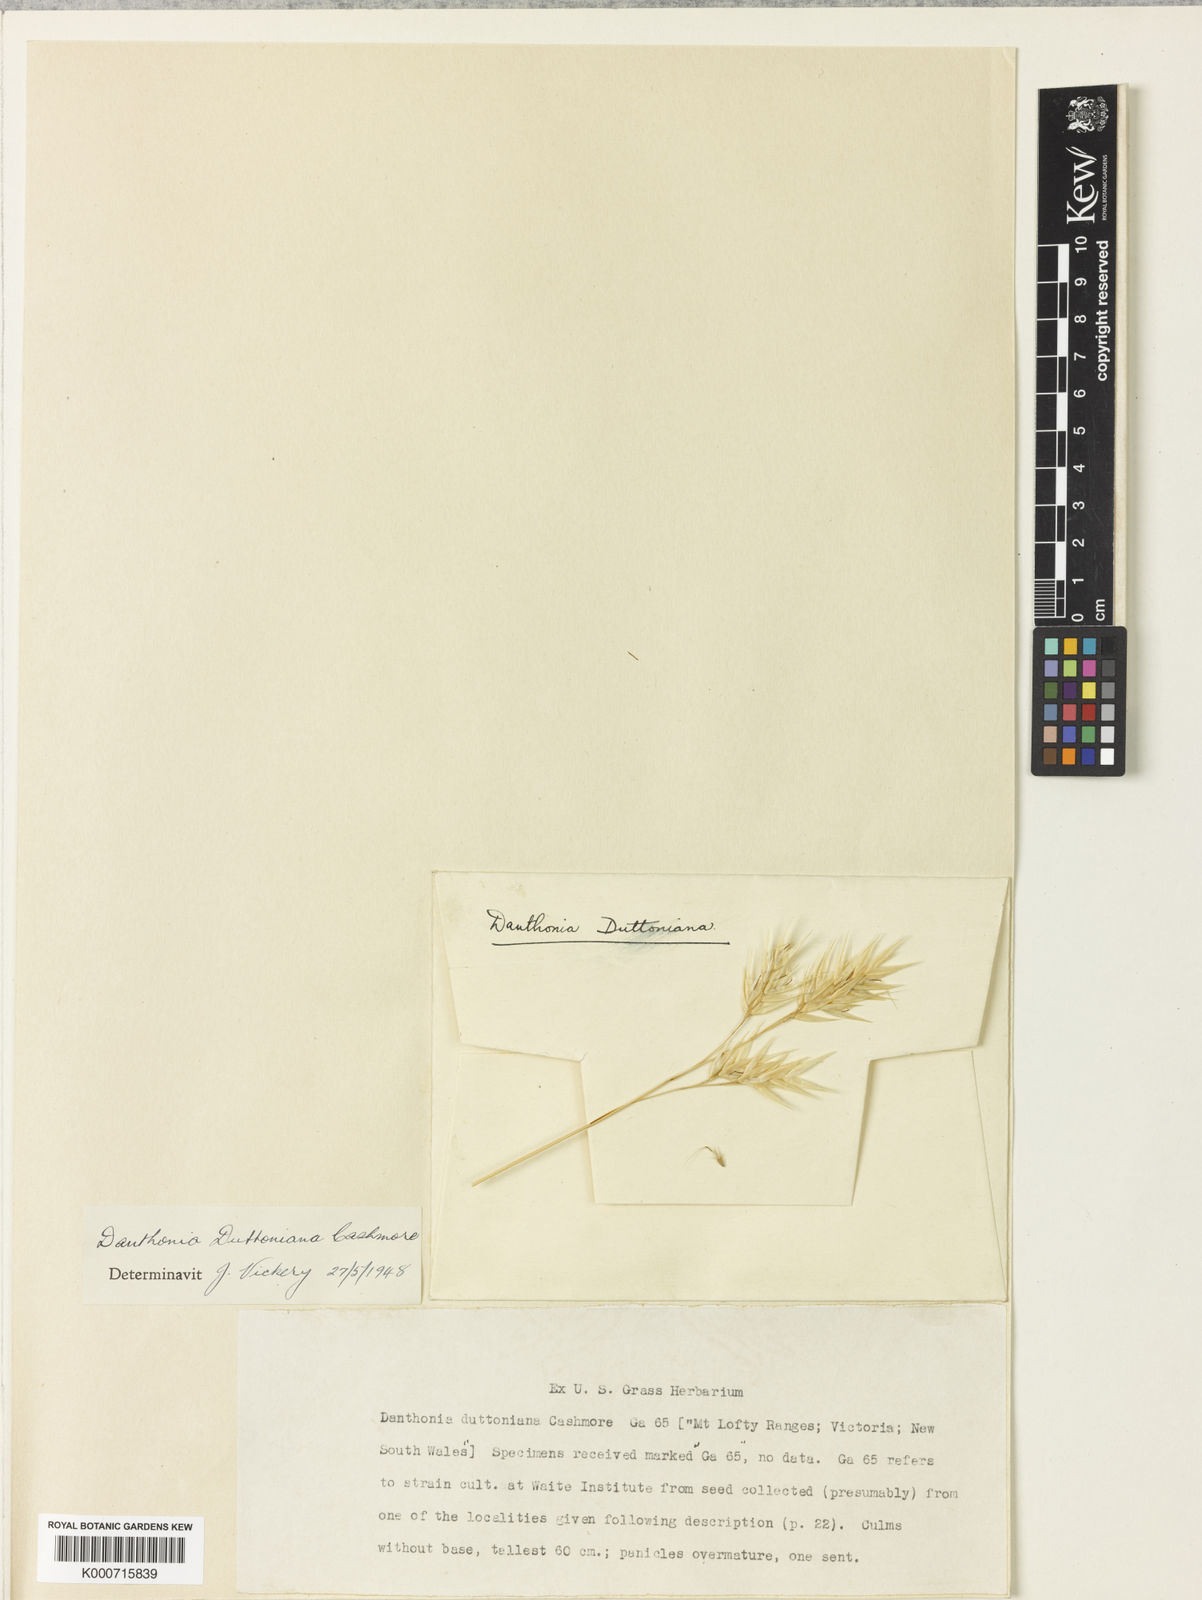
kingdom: Plantae
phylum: Tracheophyta
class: Liliopsida
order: Poales
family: Poaceae
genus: Rytidosperma
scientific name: Rytidosperma duttonianum
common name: Brown-black wallaby grass
